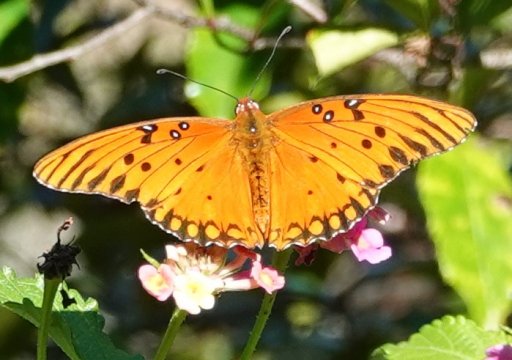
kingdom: Animalia
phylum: Arthropoda
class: Insecta
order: Lepidoptera
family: Nymphalidae
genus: Dione
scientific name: Dione vanillae
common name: Gulf Fritillary
